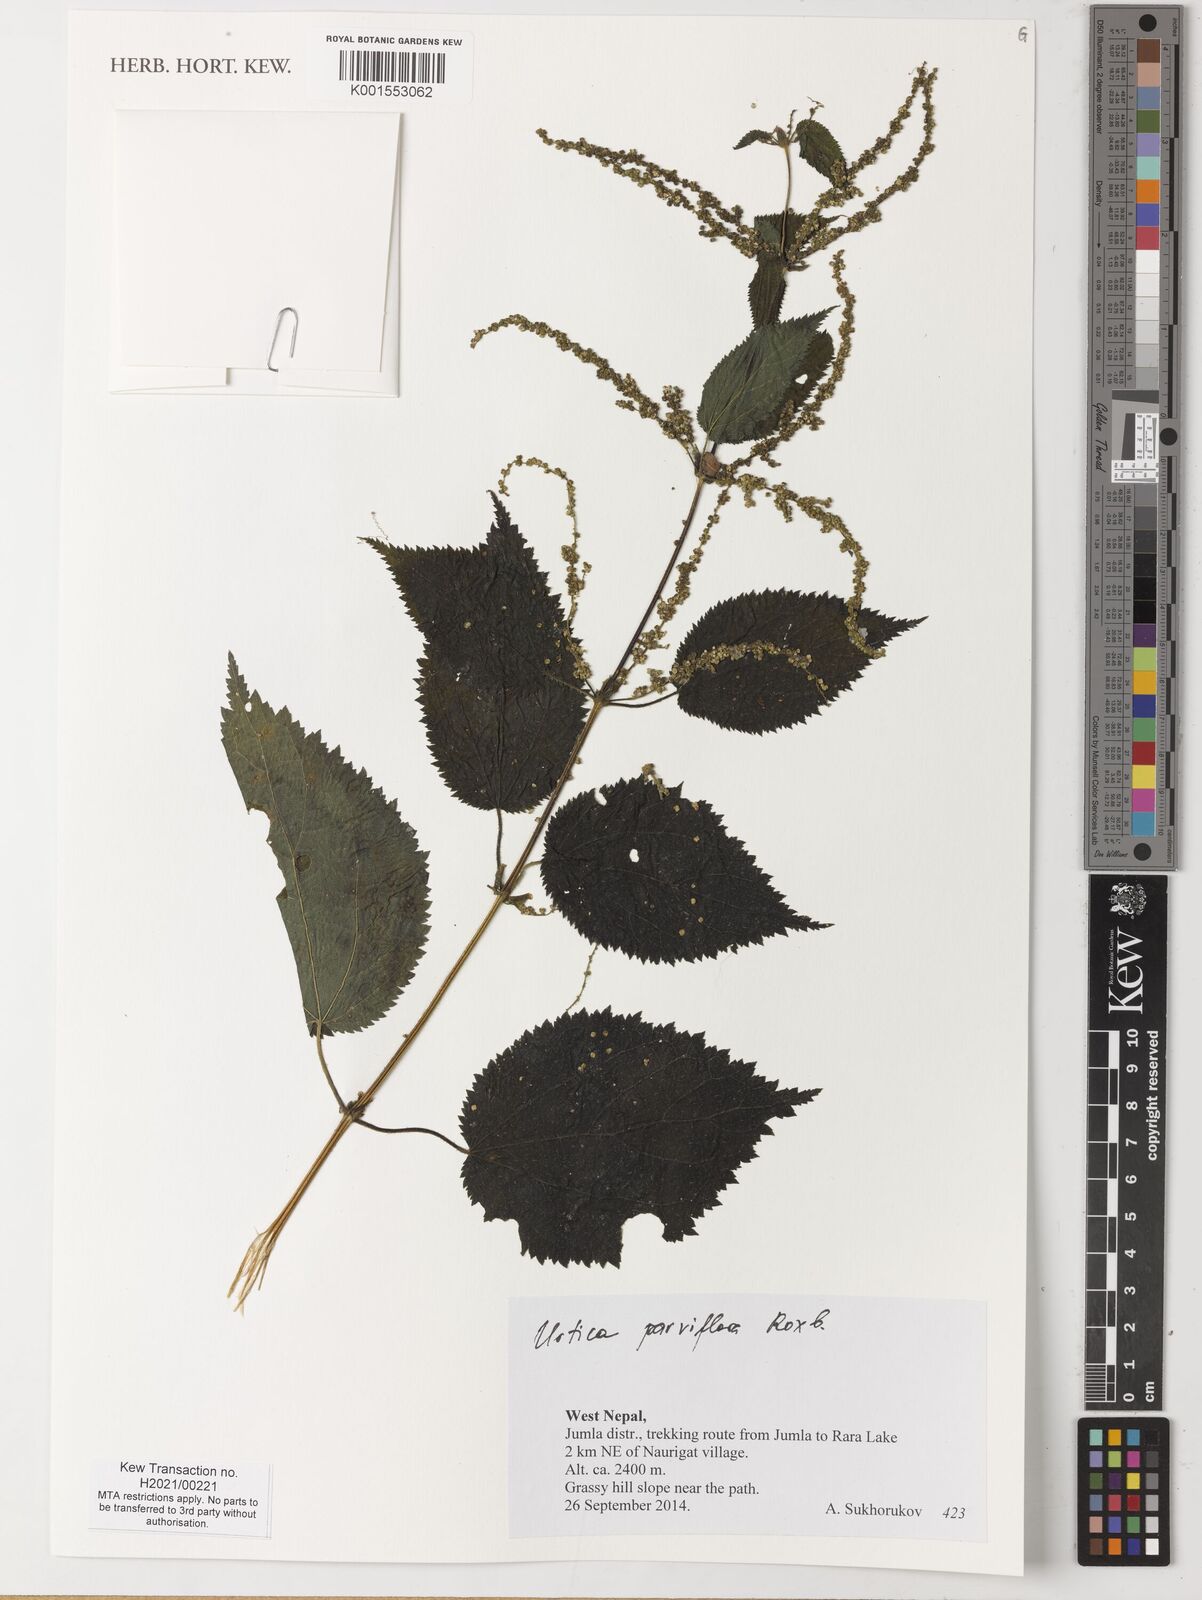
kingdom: Plantae
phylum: Tracheophyta
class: Magnoliopsida
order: Rosales
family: Urticaceae
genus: Urtica
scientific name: Urtica parviflora
